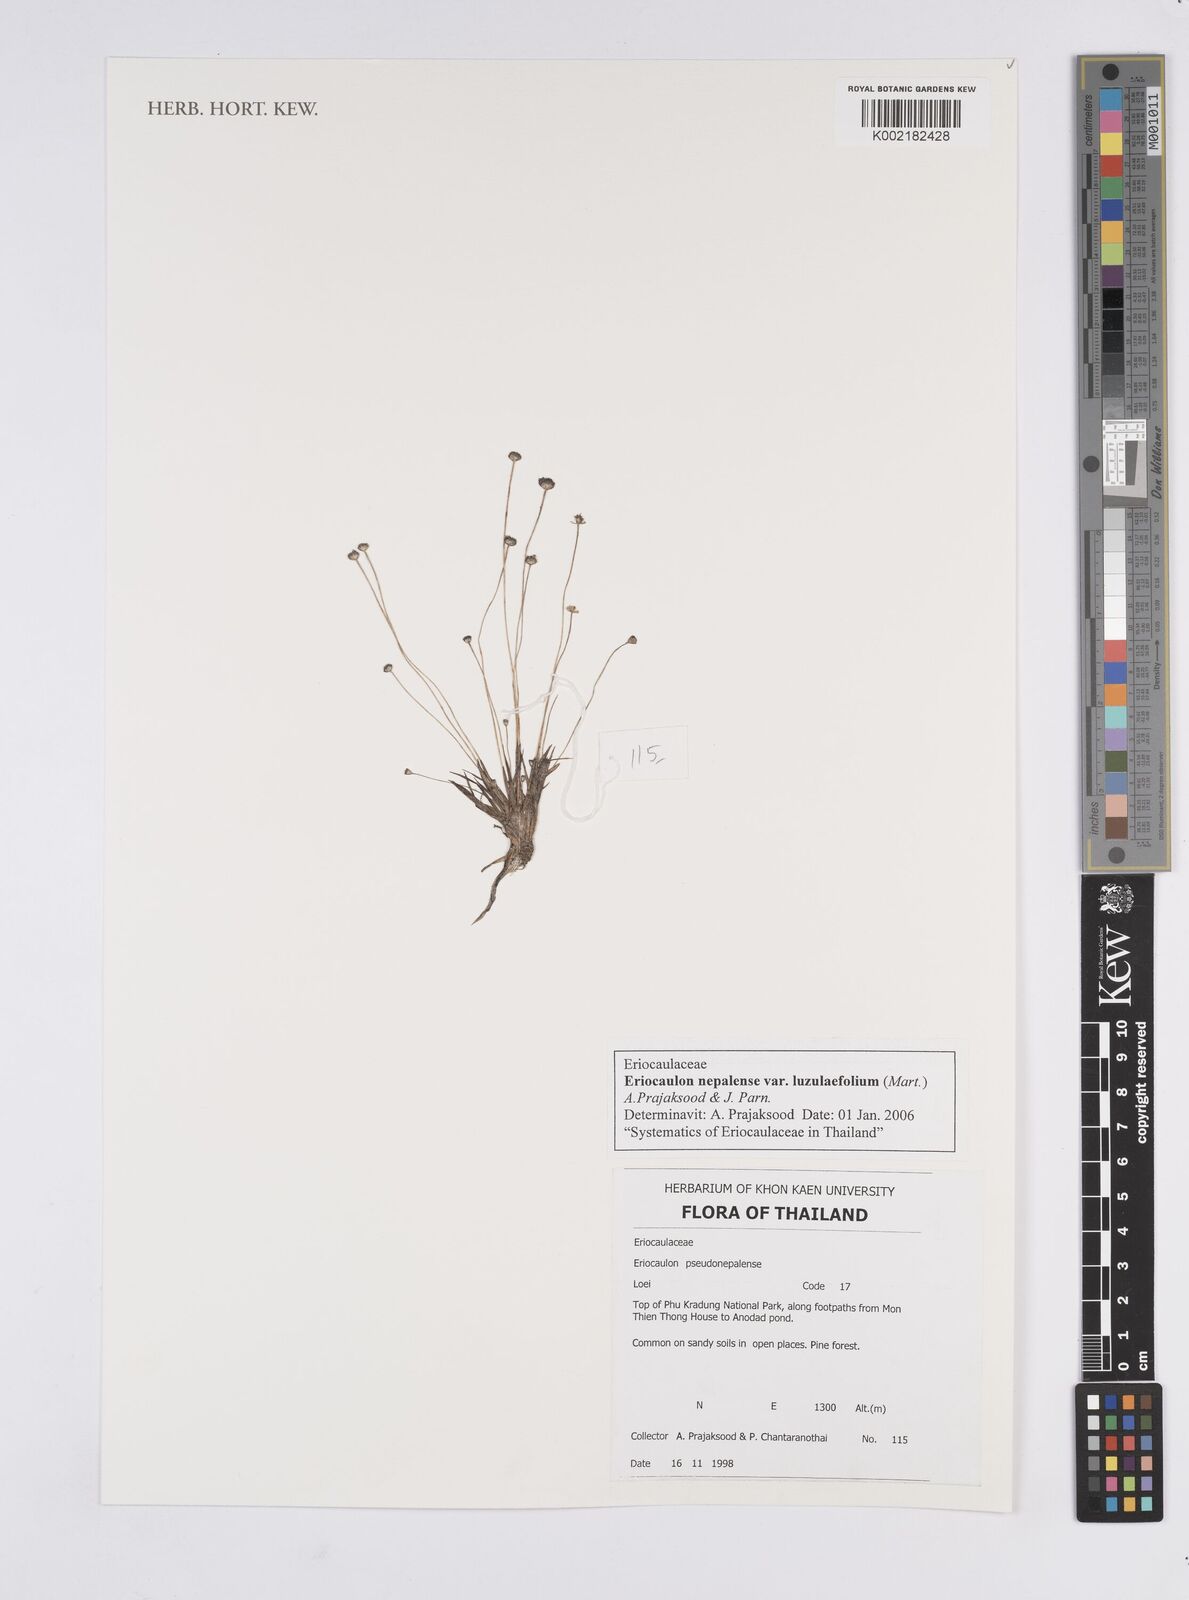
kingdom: Plantae
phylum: Tracheophyta
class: Liliopsida
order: Poales
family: Eriocaulaceae
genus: Eriocaulon
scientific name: Eriocaulon nepalense
